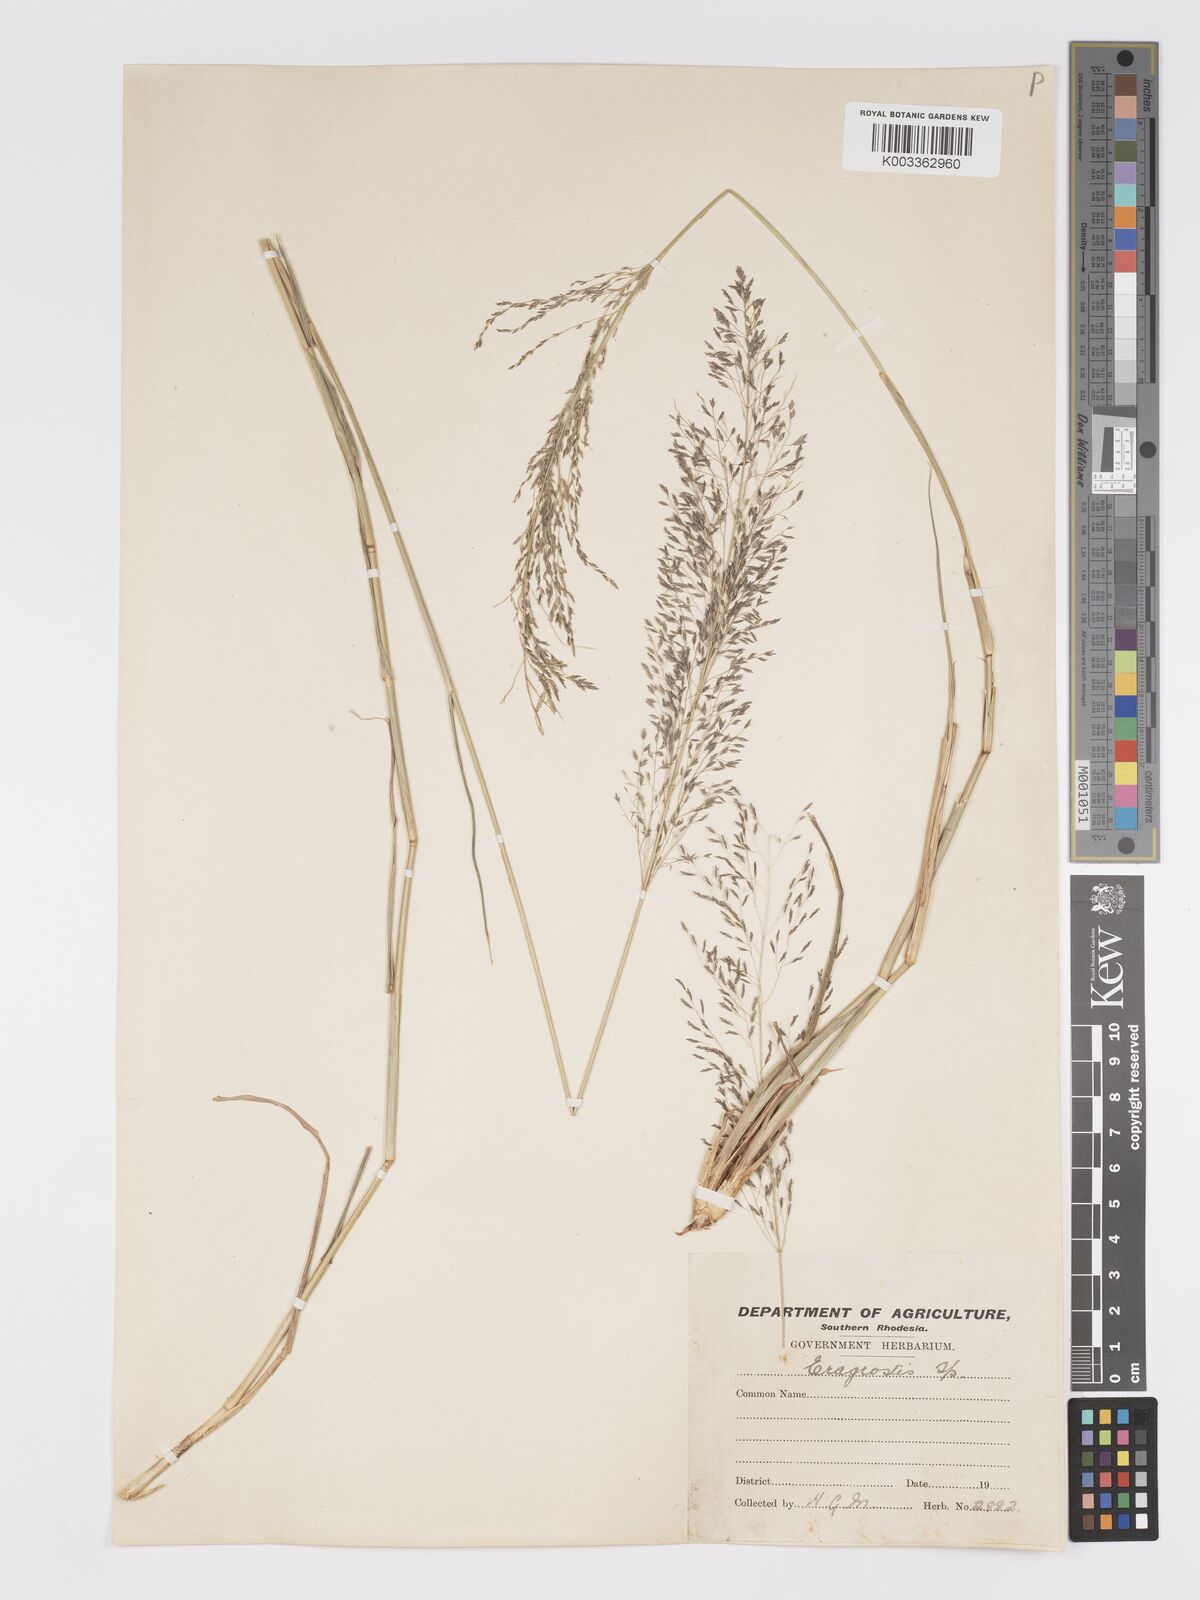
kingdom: Plantae
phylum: Tracheophyta
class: Liliopsida
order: Poales
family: Poaceae
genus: Eragrostis
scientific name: Eragrostis cylindriflora
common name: Cylinderflower lovegrass
